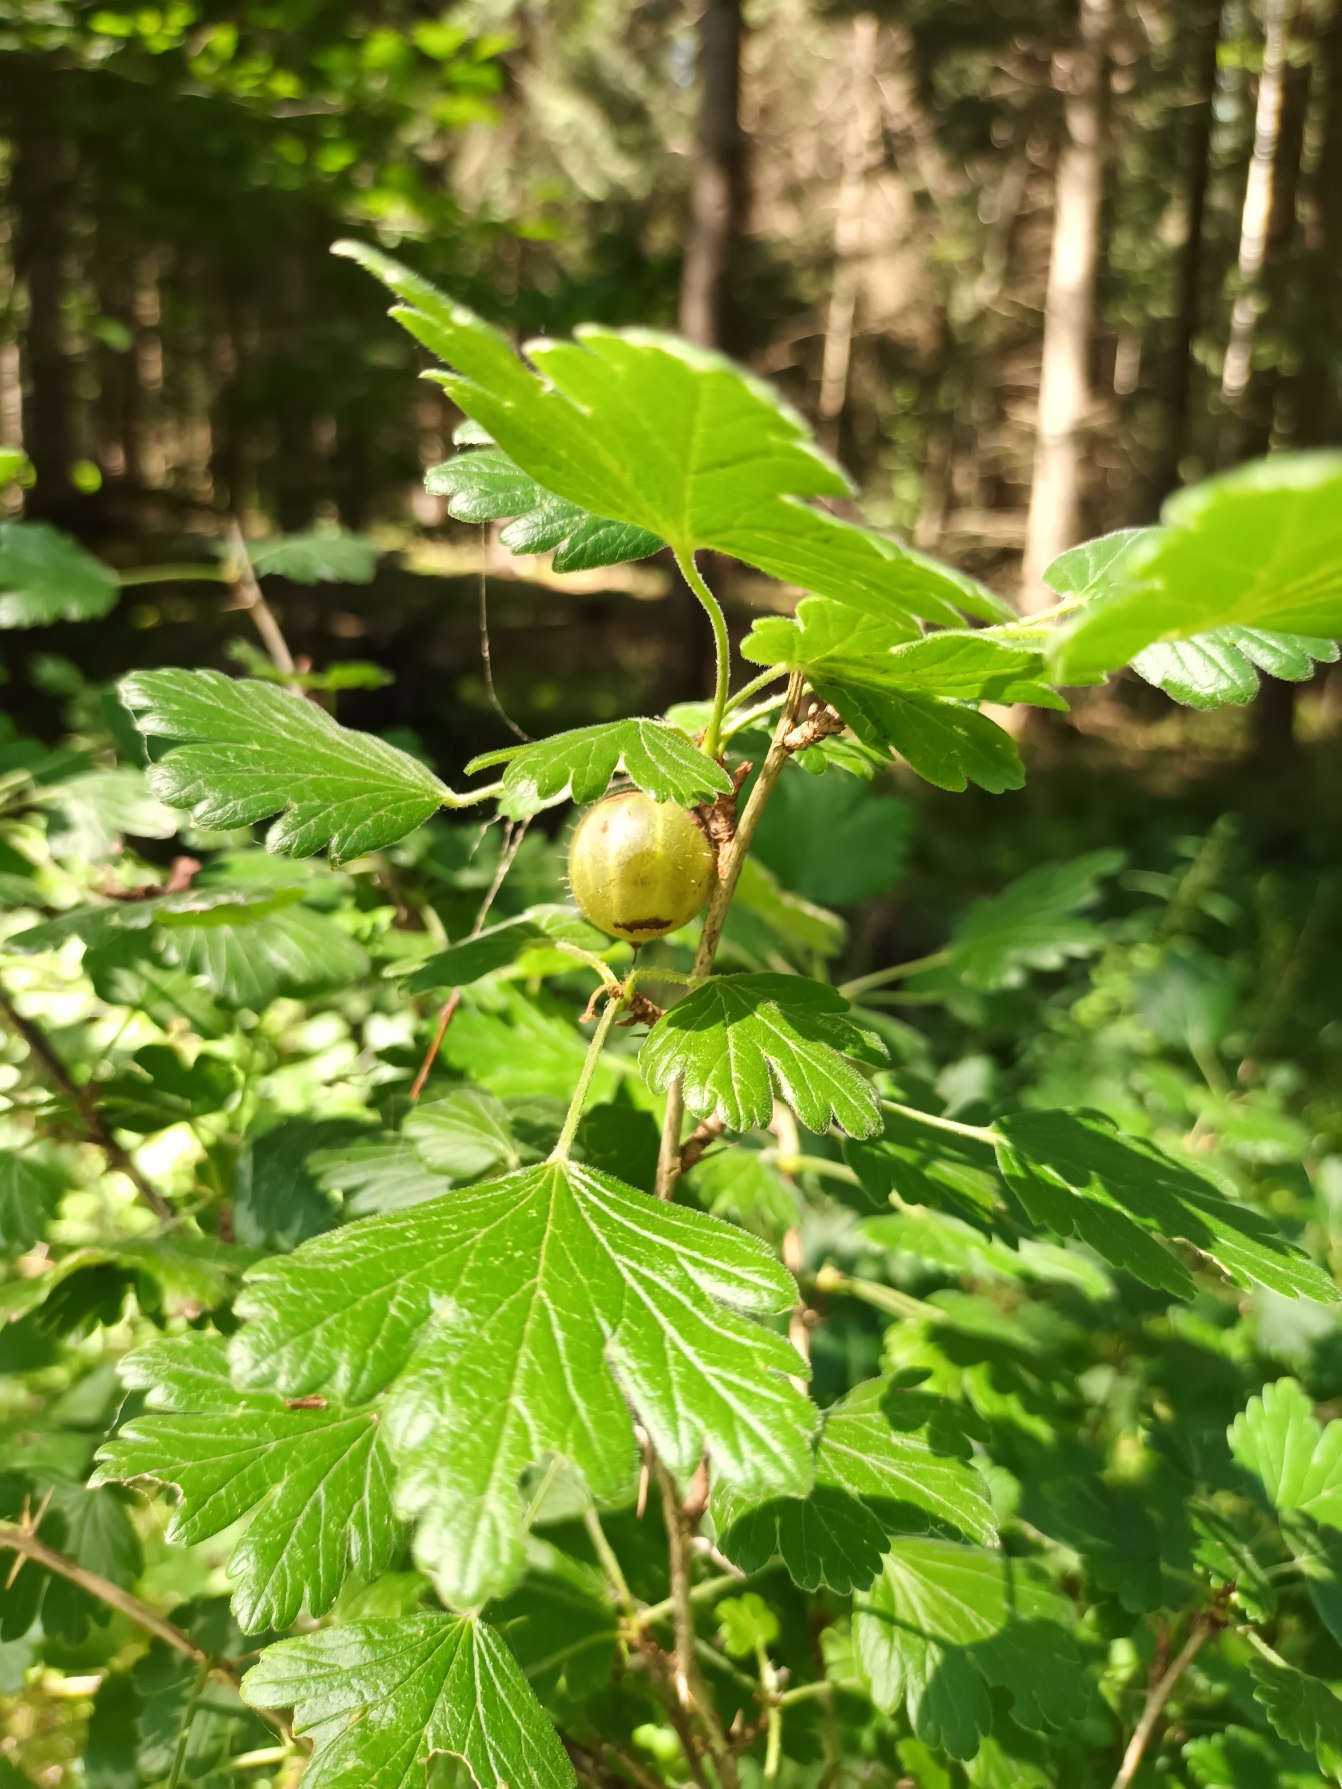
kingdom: Plantae
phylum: Tracheophyta
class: Magnoliopsida
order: Saxifragales
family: Grossulariaceae
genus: Ribes
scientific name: Ribes uva-crispa
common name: Stikkelsbær
